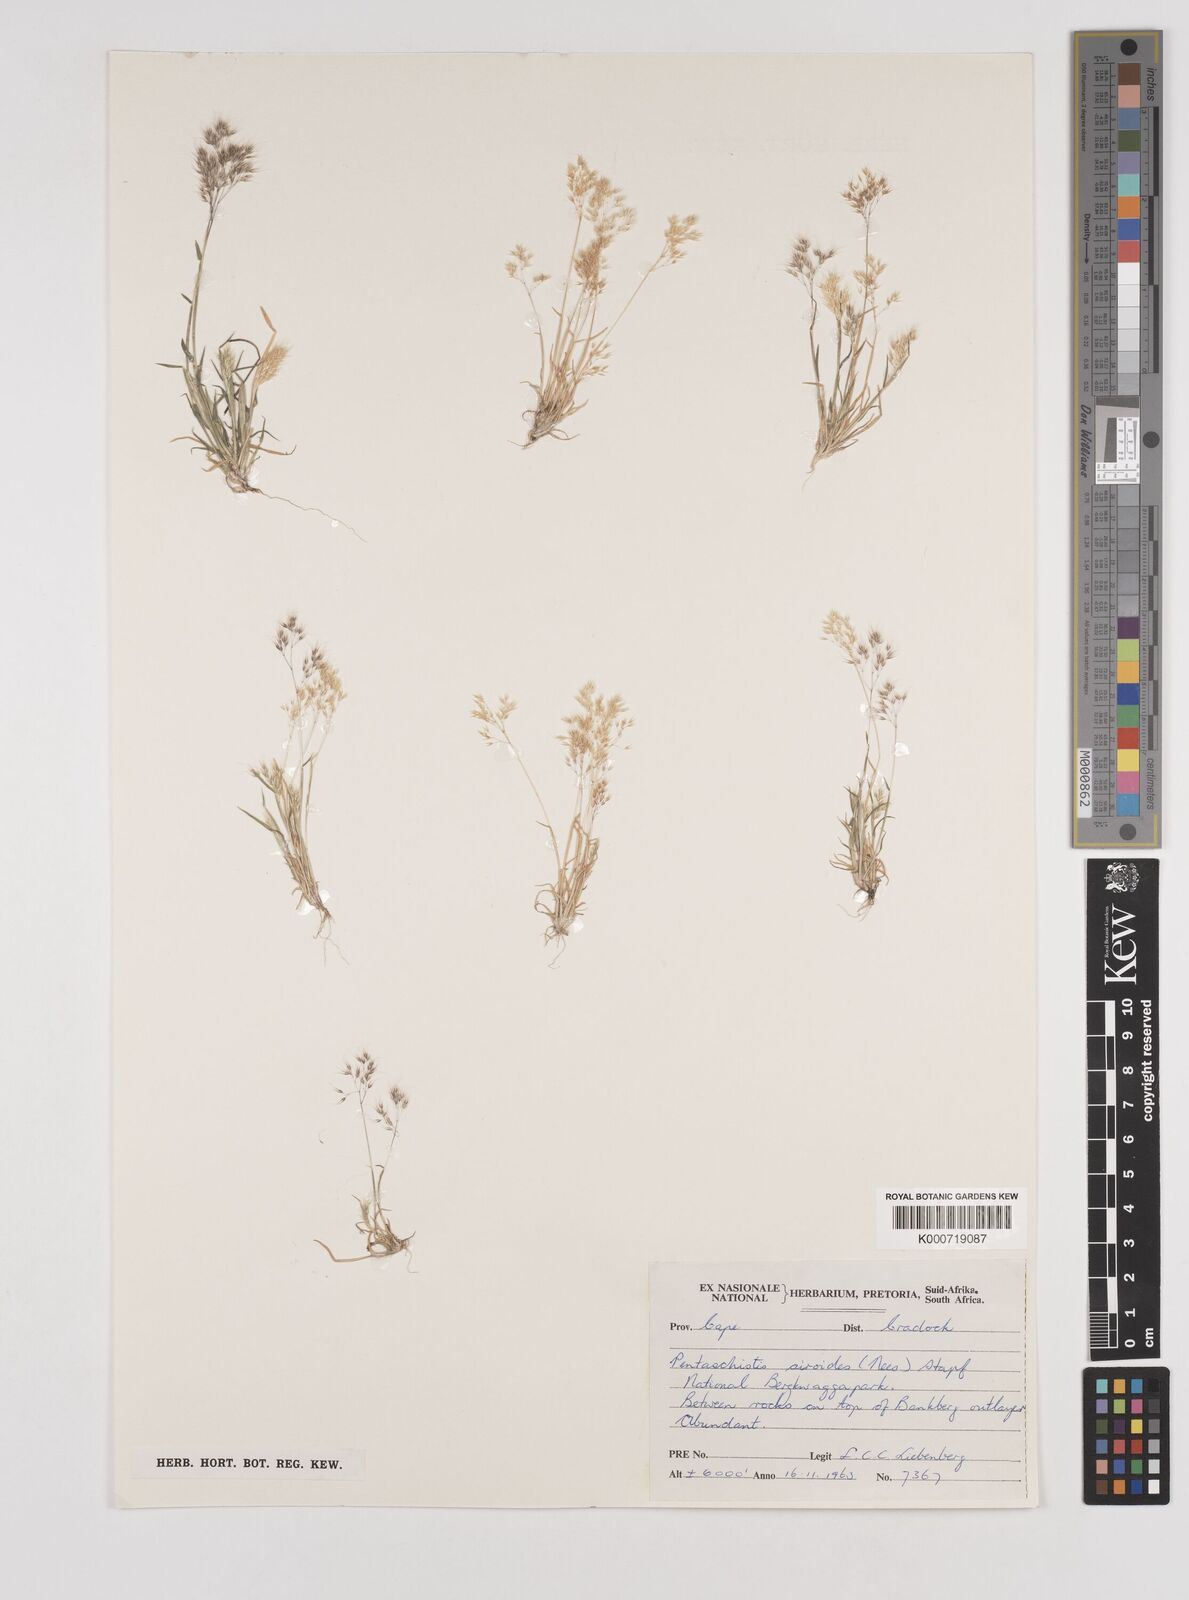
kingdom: Plantae
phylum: Tracheophyta
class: Liliopsida
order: Poales
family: Poaceae
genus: Pentameris
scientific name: Pentameris airoides
